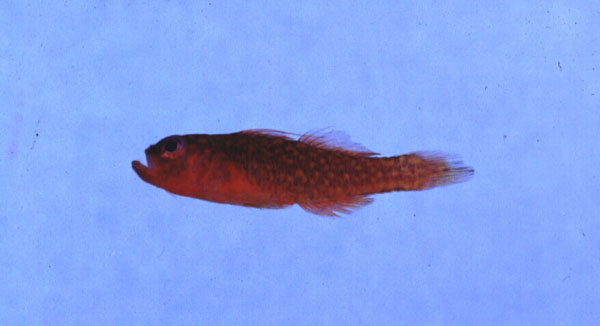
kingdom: Animalia
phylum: Chordata
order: Perciformes
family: Gobiidae
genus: Trimma
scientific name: Trimma flammeum
